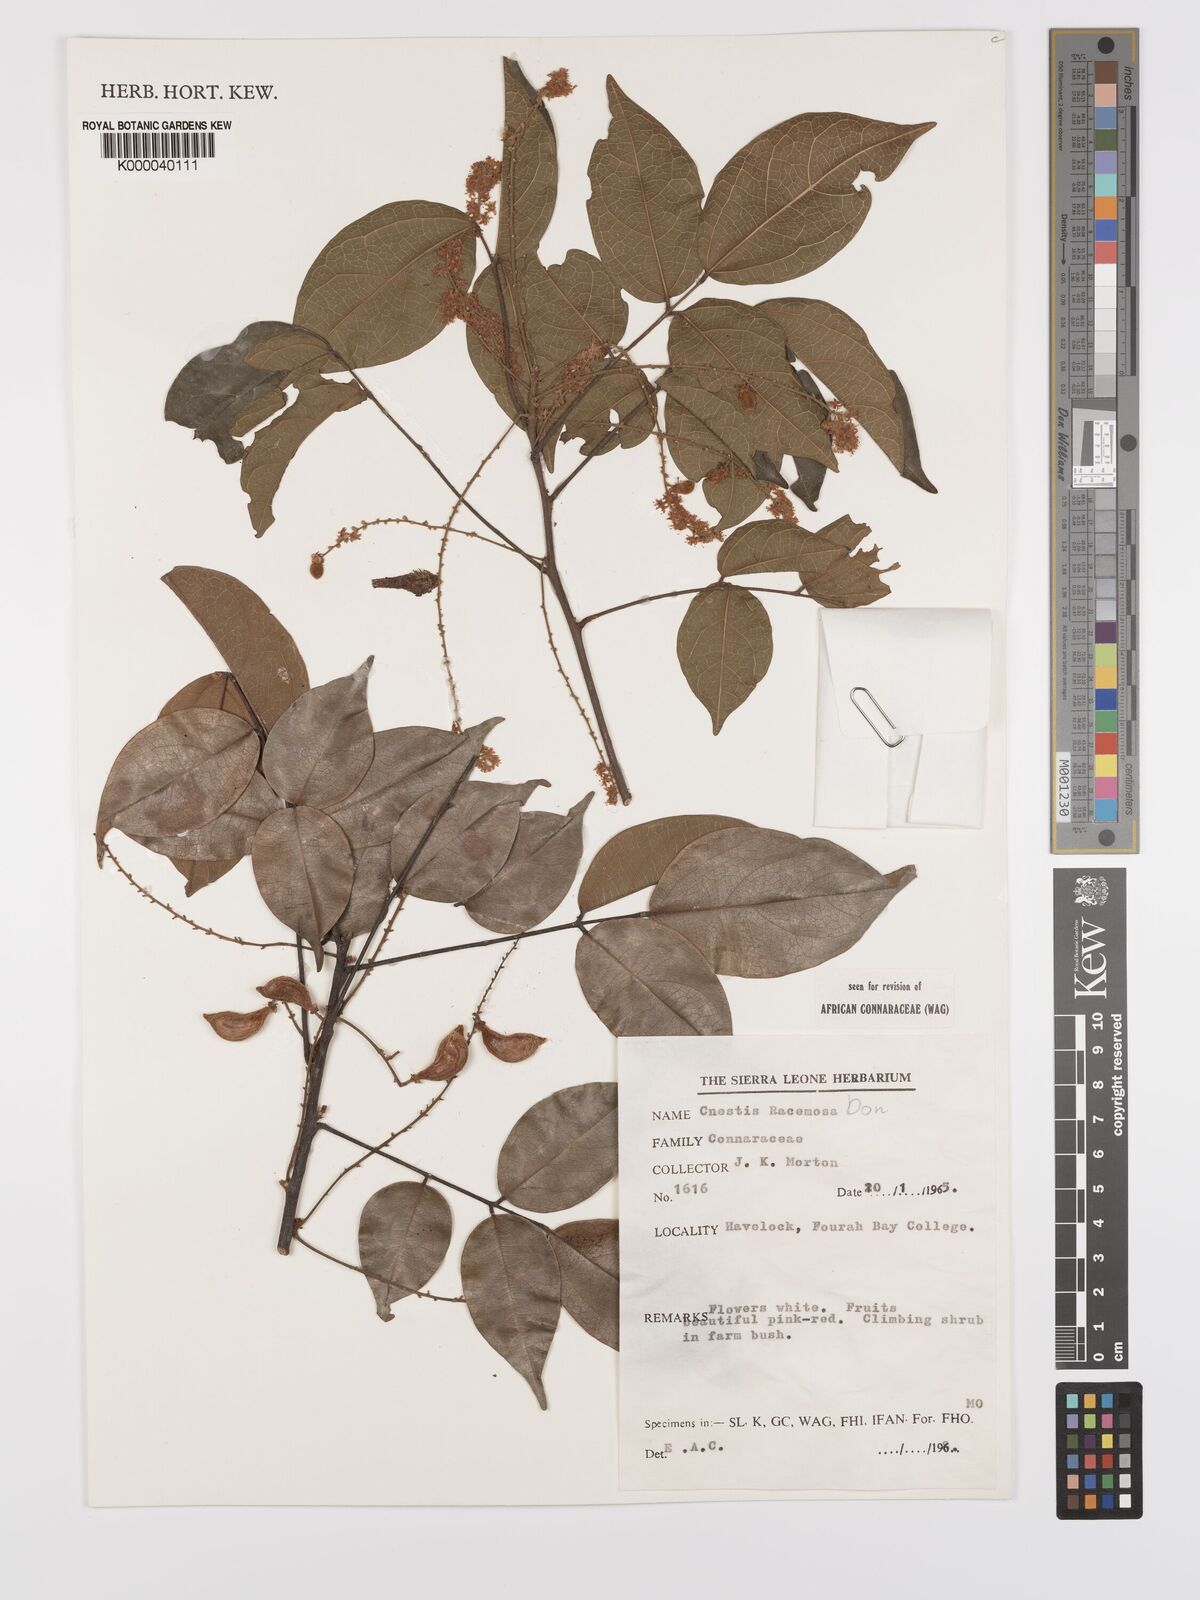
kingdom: Plantae
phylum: Tracheophyta
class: Magnoliopsida
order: Oxalidales
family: Connaraceae
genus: Cnestis
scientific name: Cnestis racemosa
